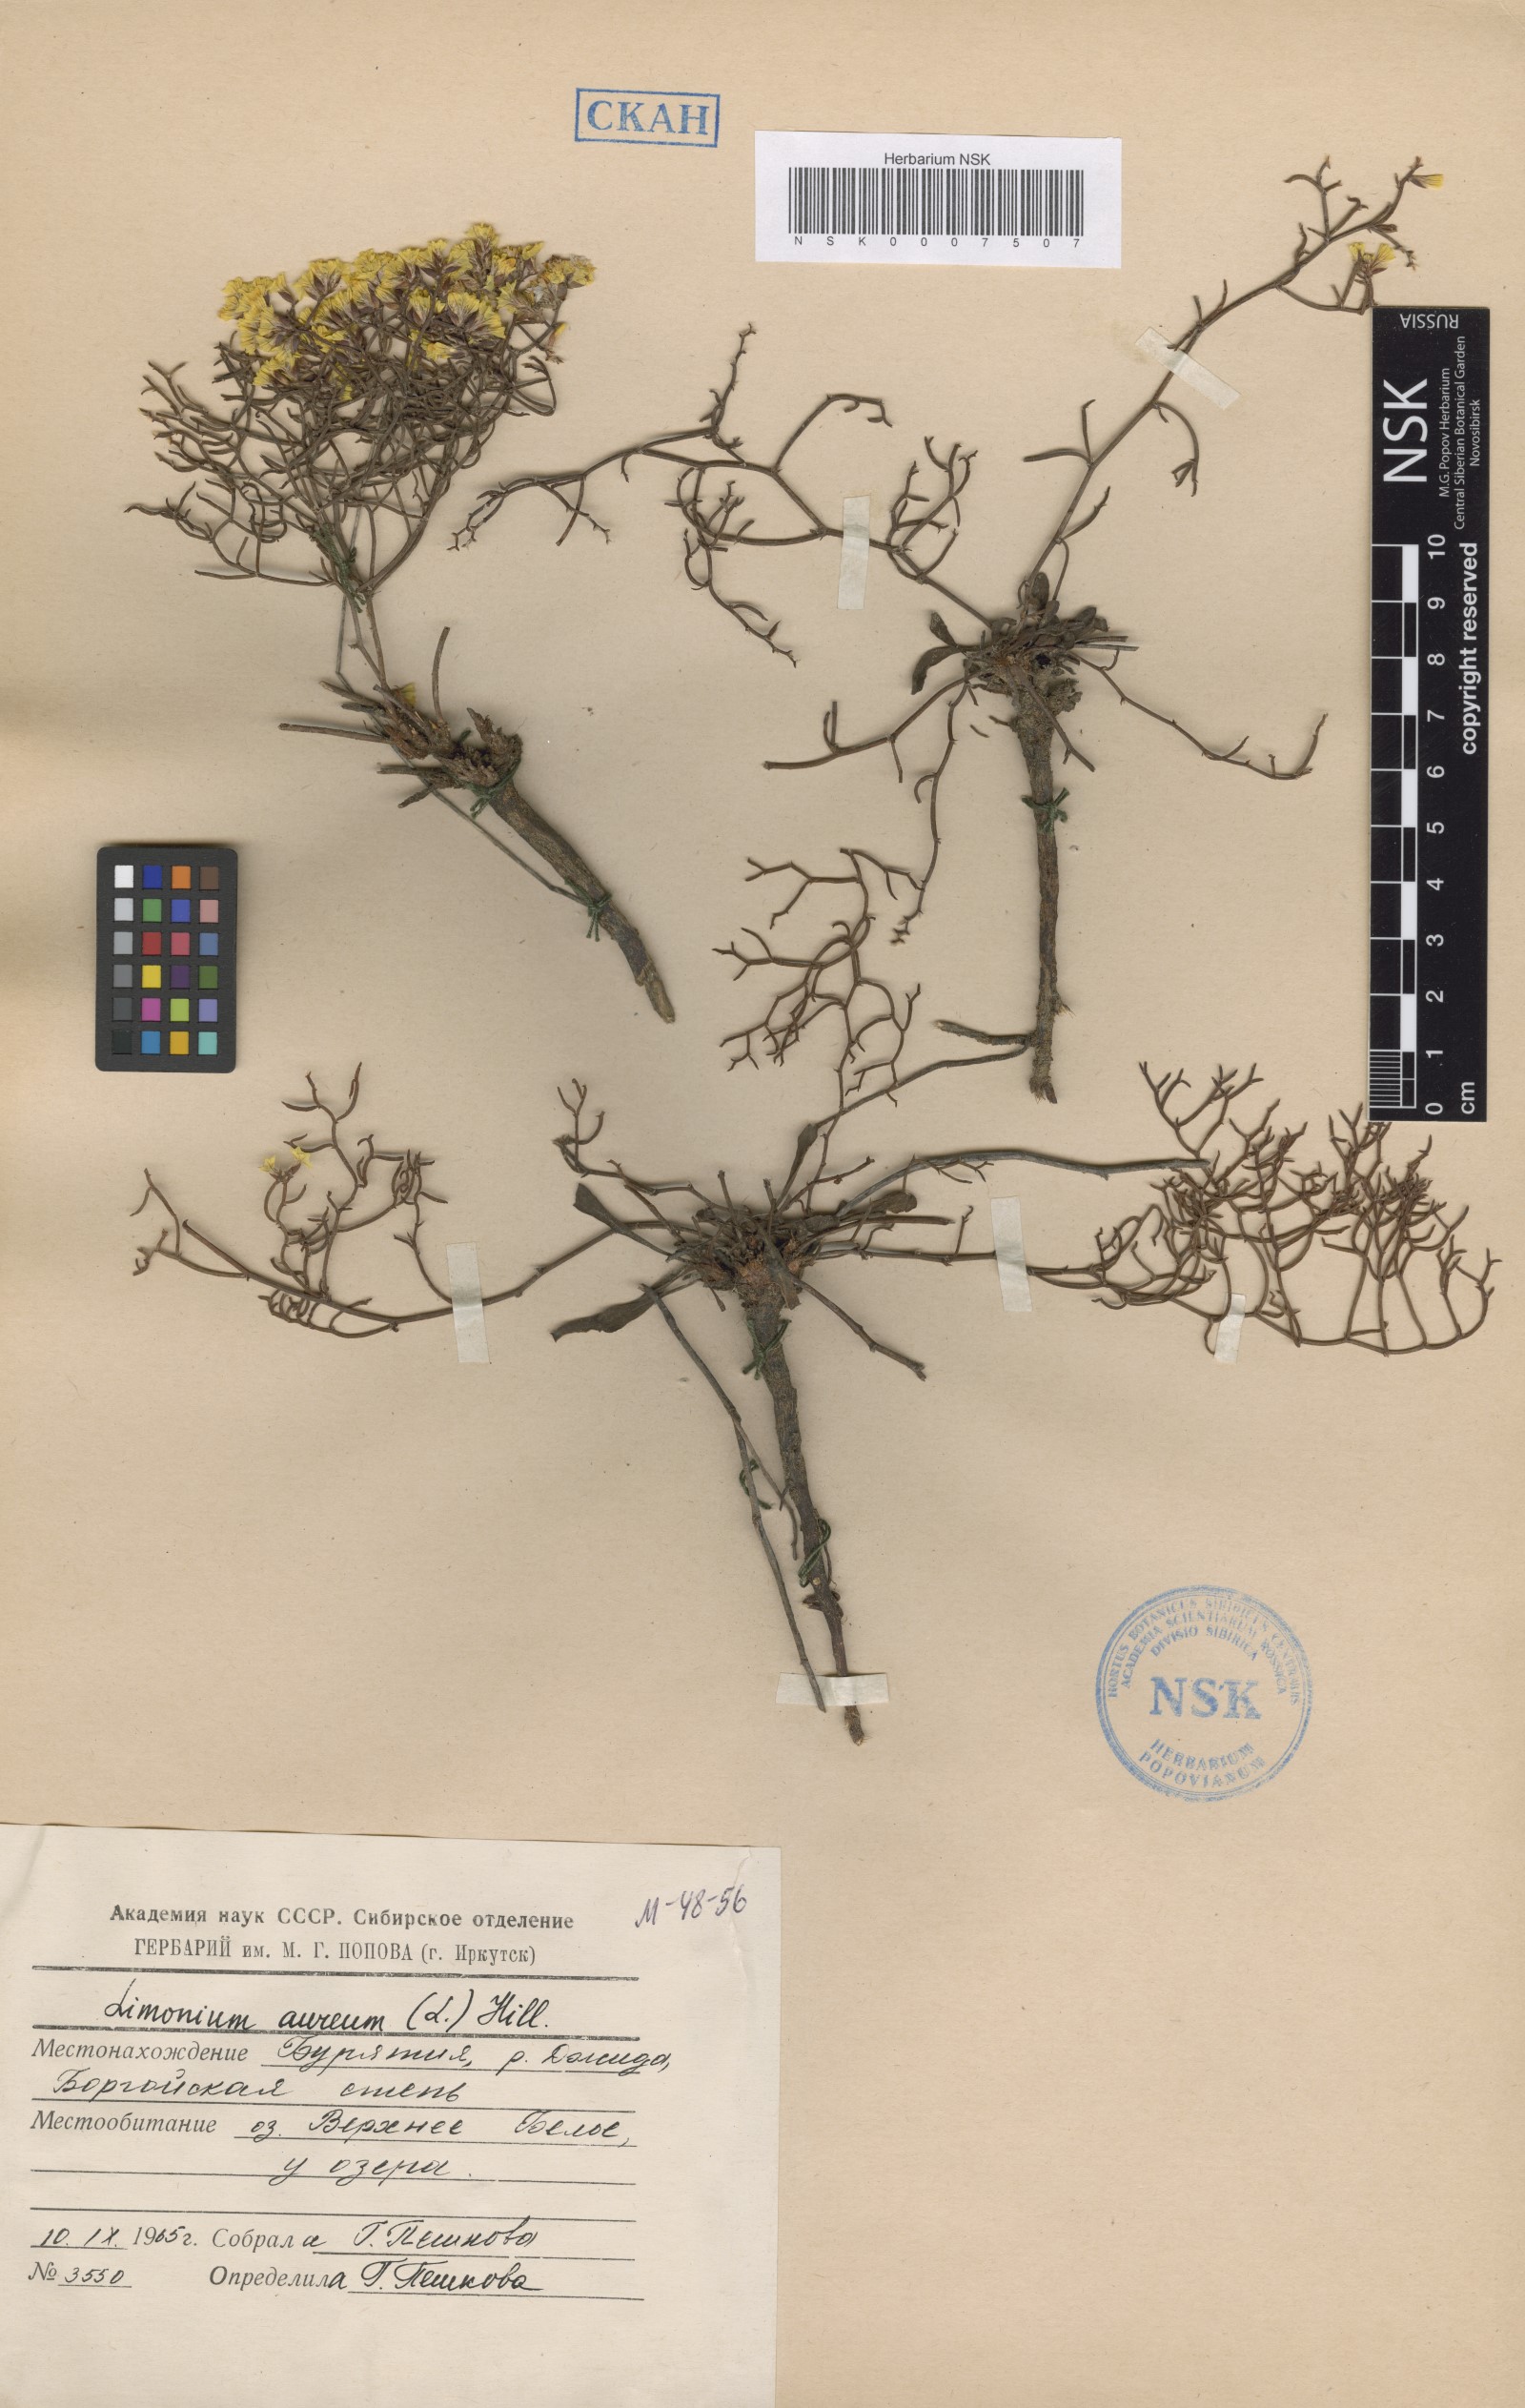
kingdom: Plantae
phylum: Tracheophyta
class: Magnoliopsida
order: Caryophyllales
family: Plumbaginaceae
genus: Limonium
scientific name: Limonium aureum
